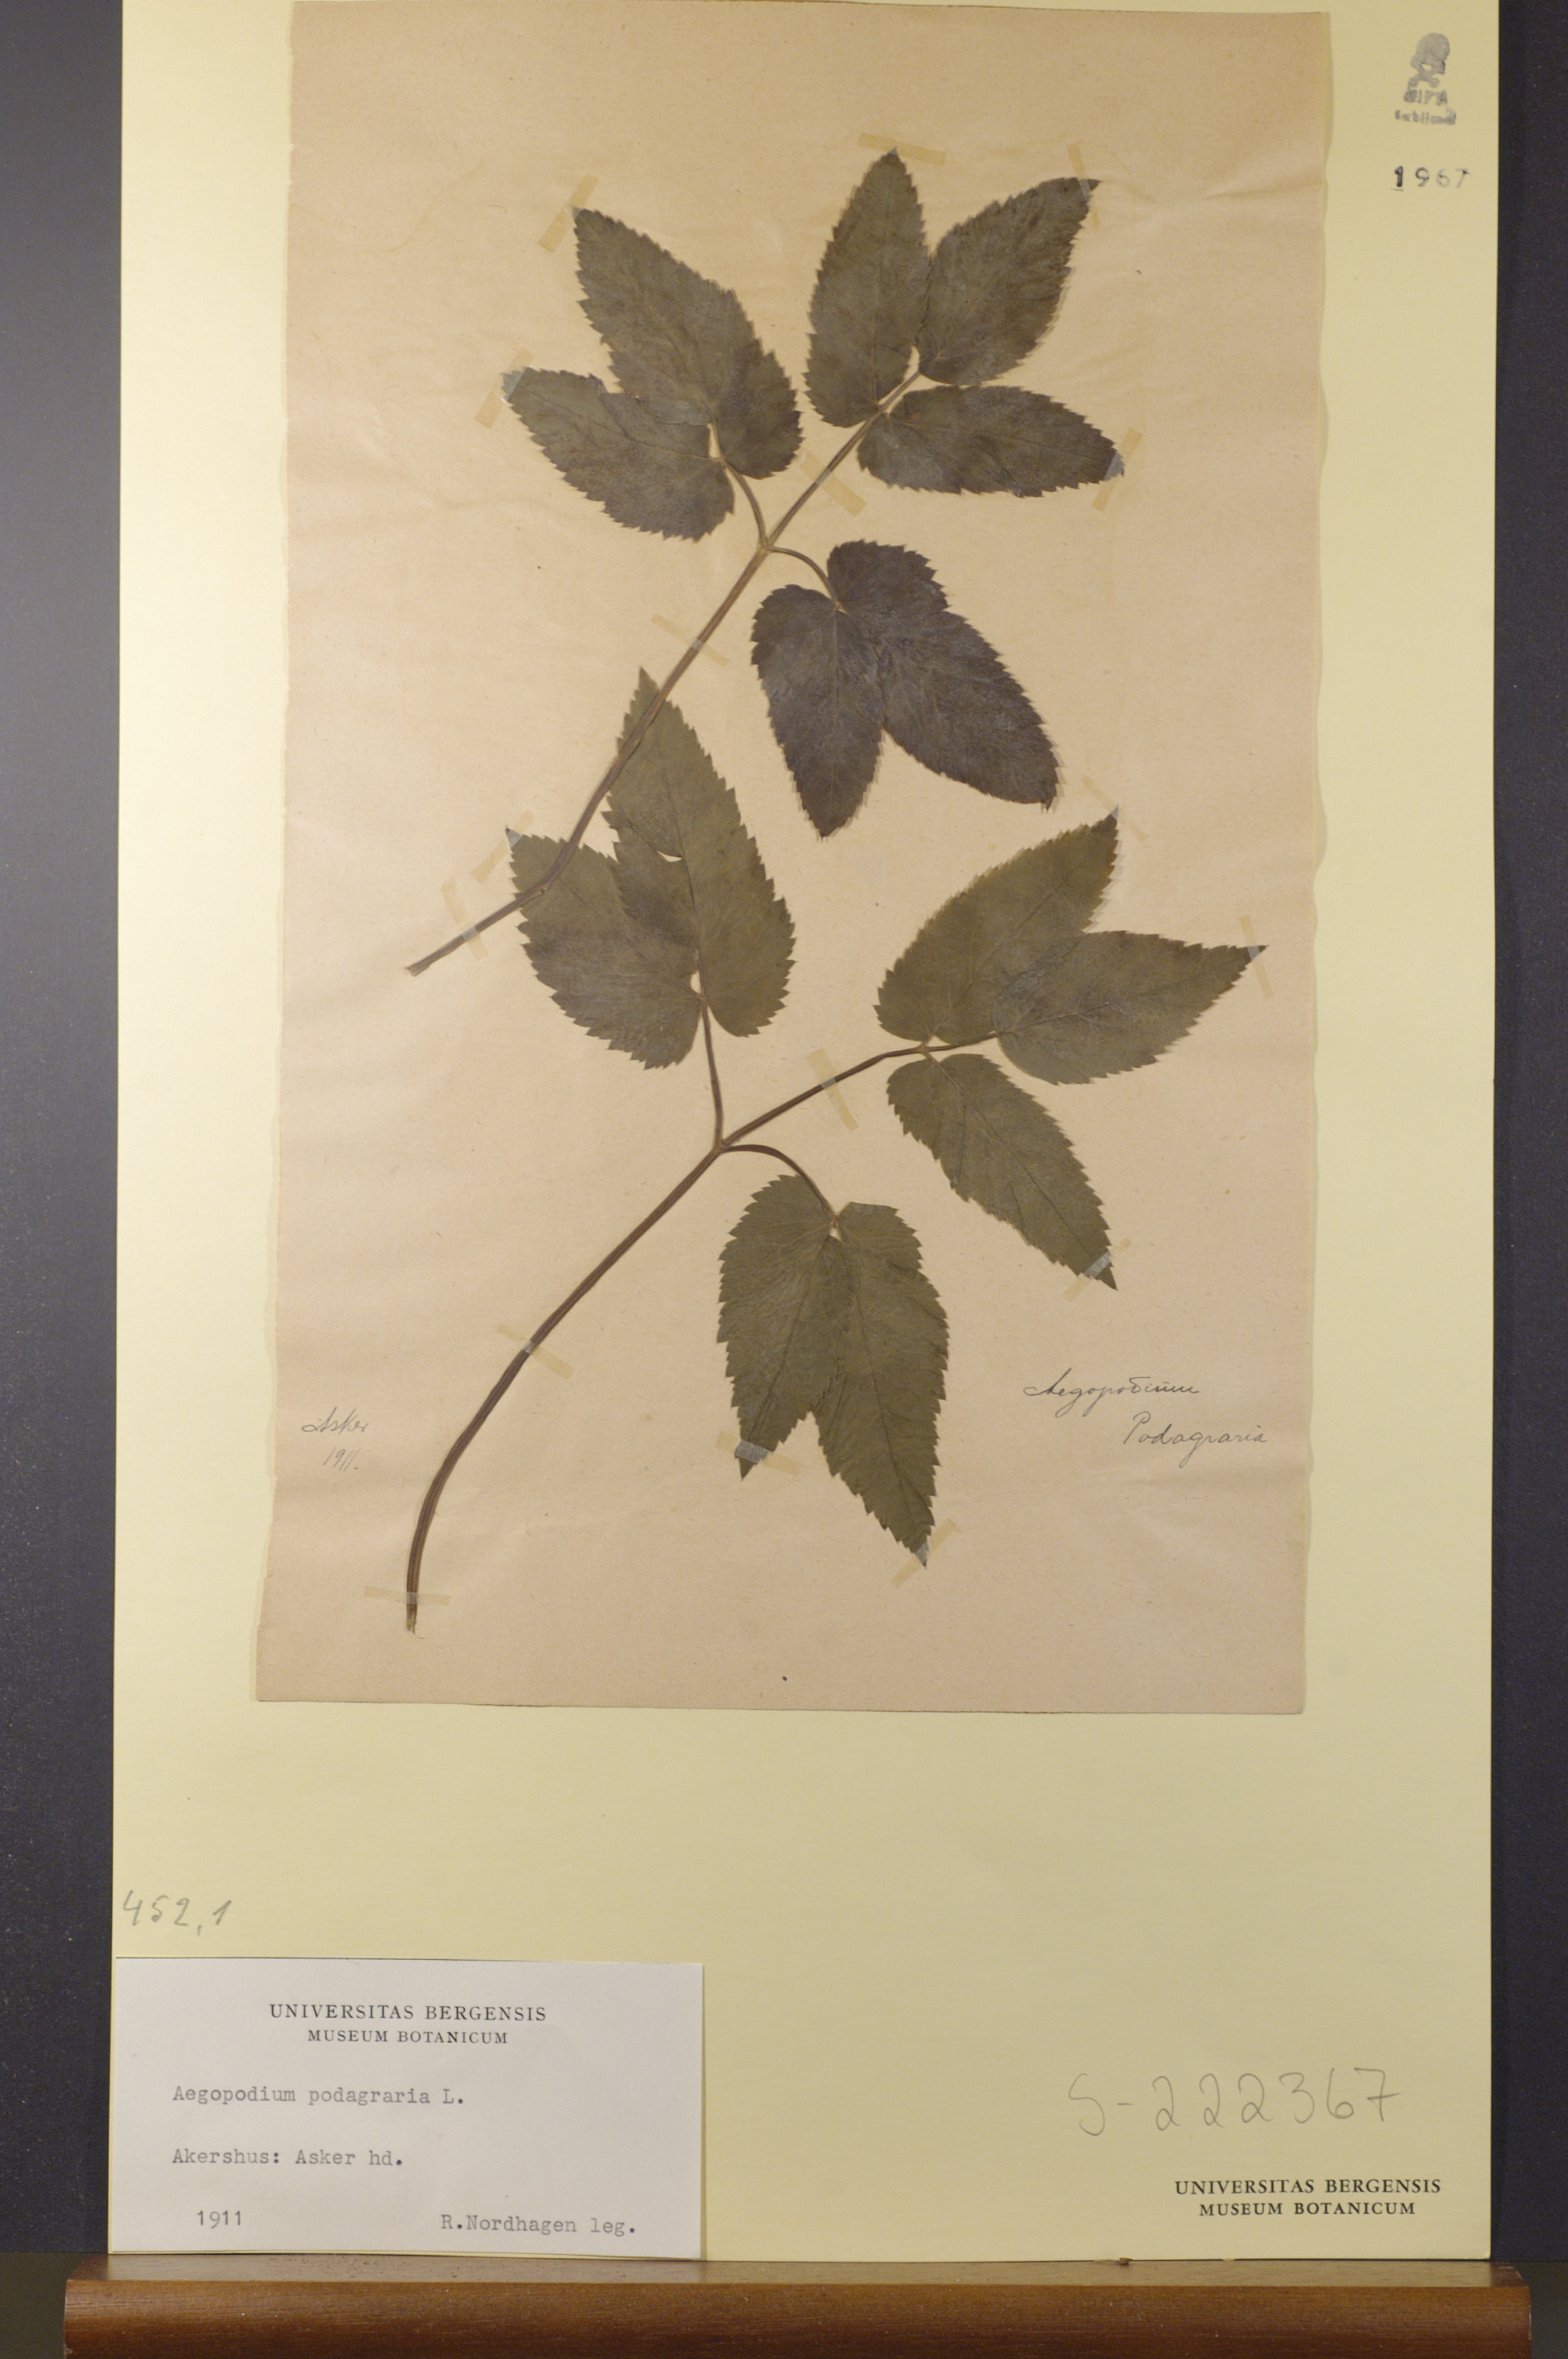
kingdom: Plantae
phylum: Tracheophyta
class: Magnoliopsida
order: Apiales
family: Apiaceae
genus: Aegopodium
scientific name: Aegopodium podagraria
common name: Ground-elder
